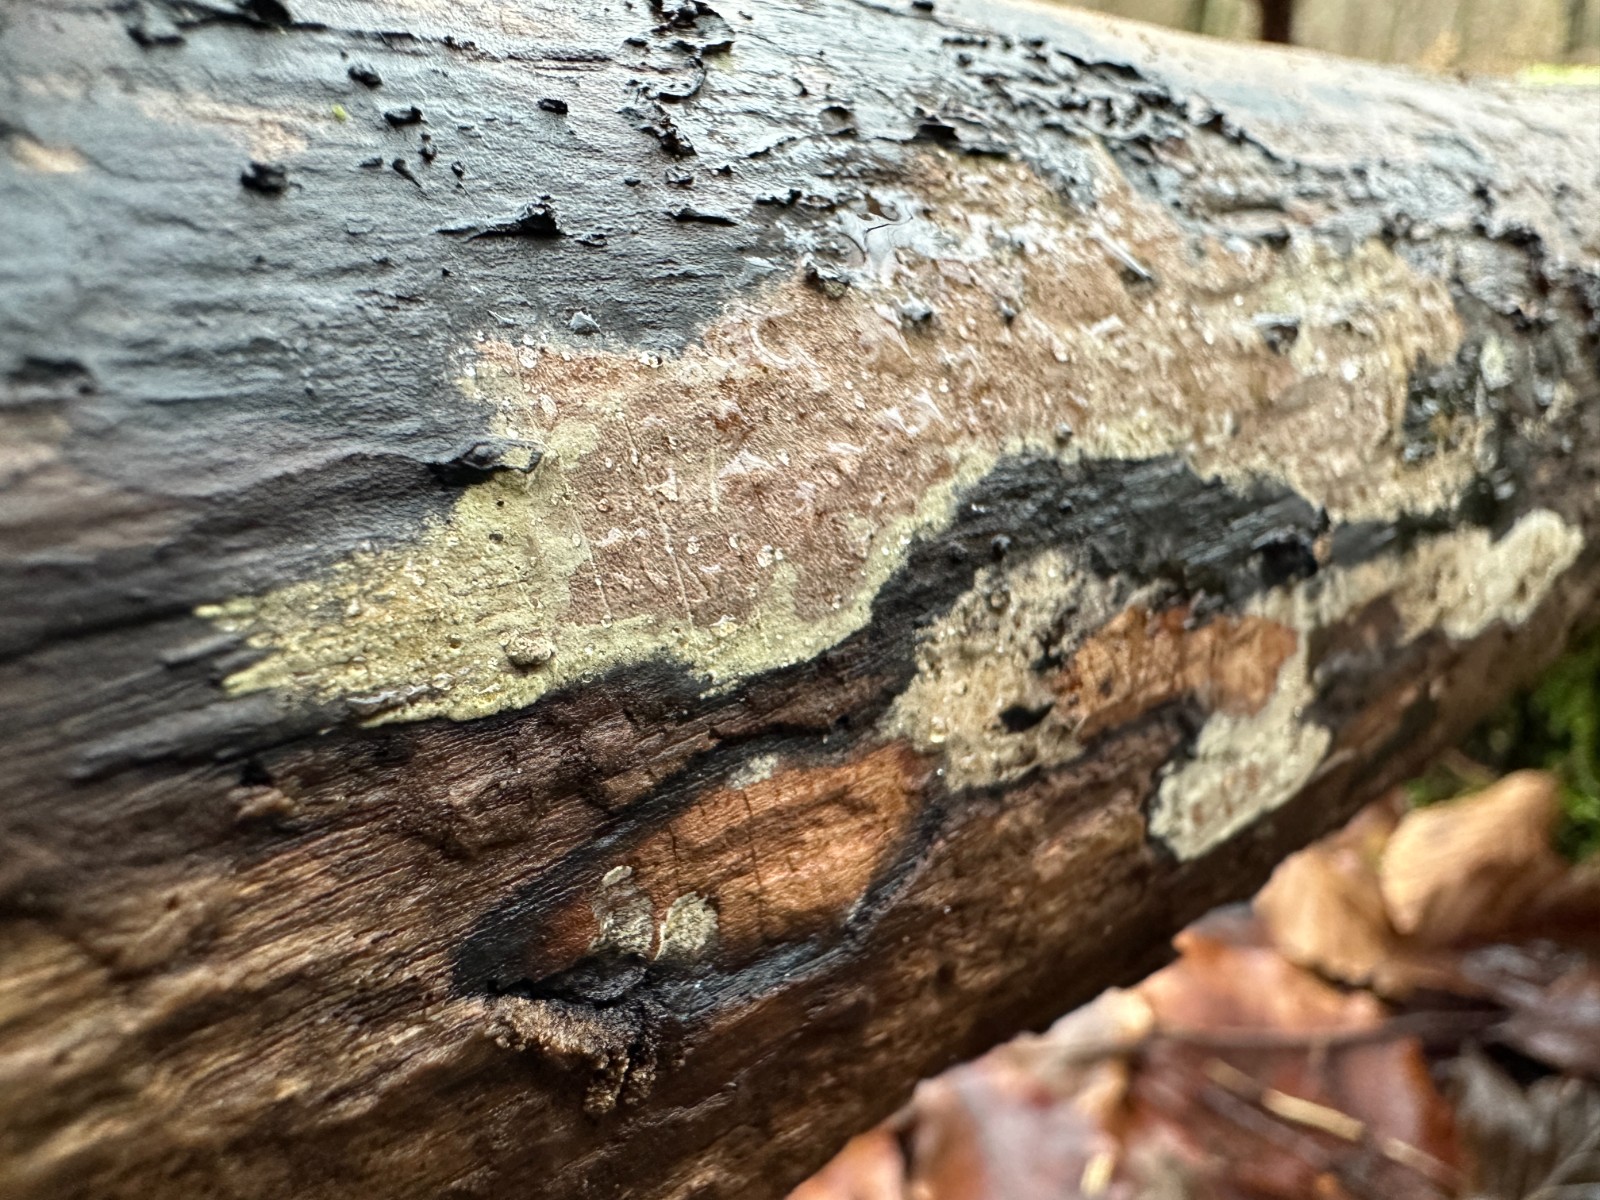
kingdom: Fungi
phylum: Ascomycota
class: Sordariomycetes
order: Xylariales
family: Hypoxylaceae
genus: Hypoxylon
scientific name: Hypoxylon petriniae
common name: nedsænket kulbær
